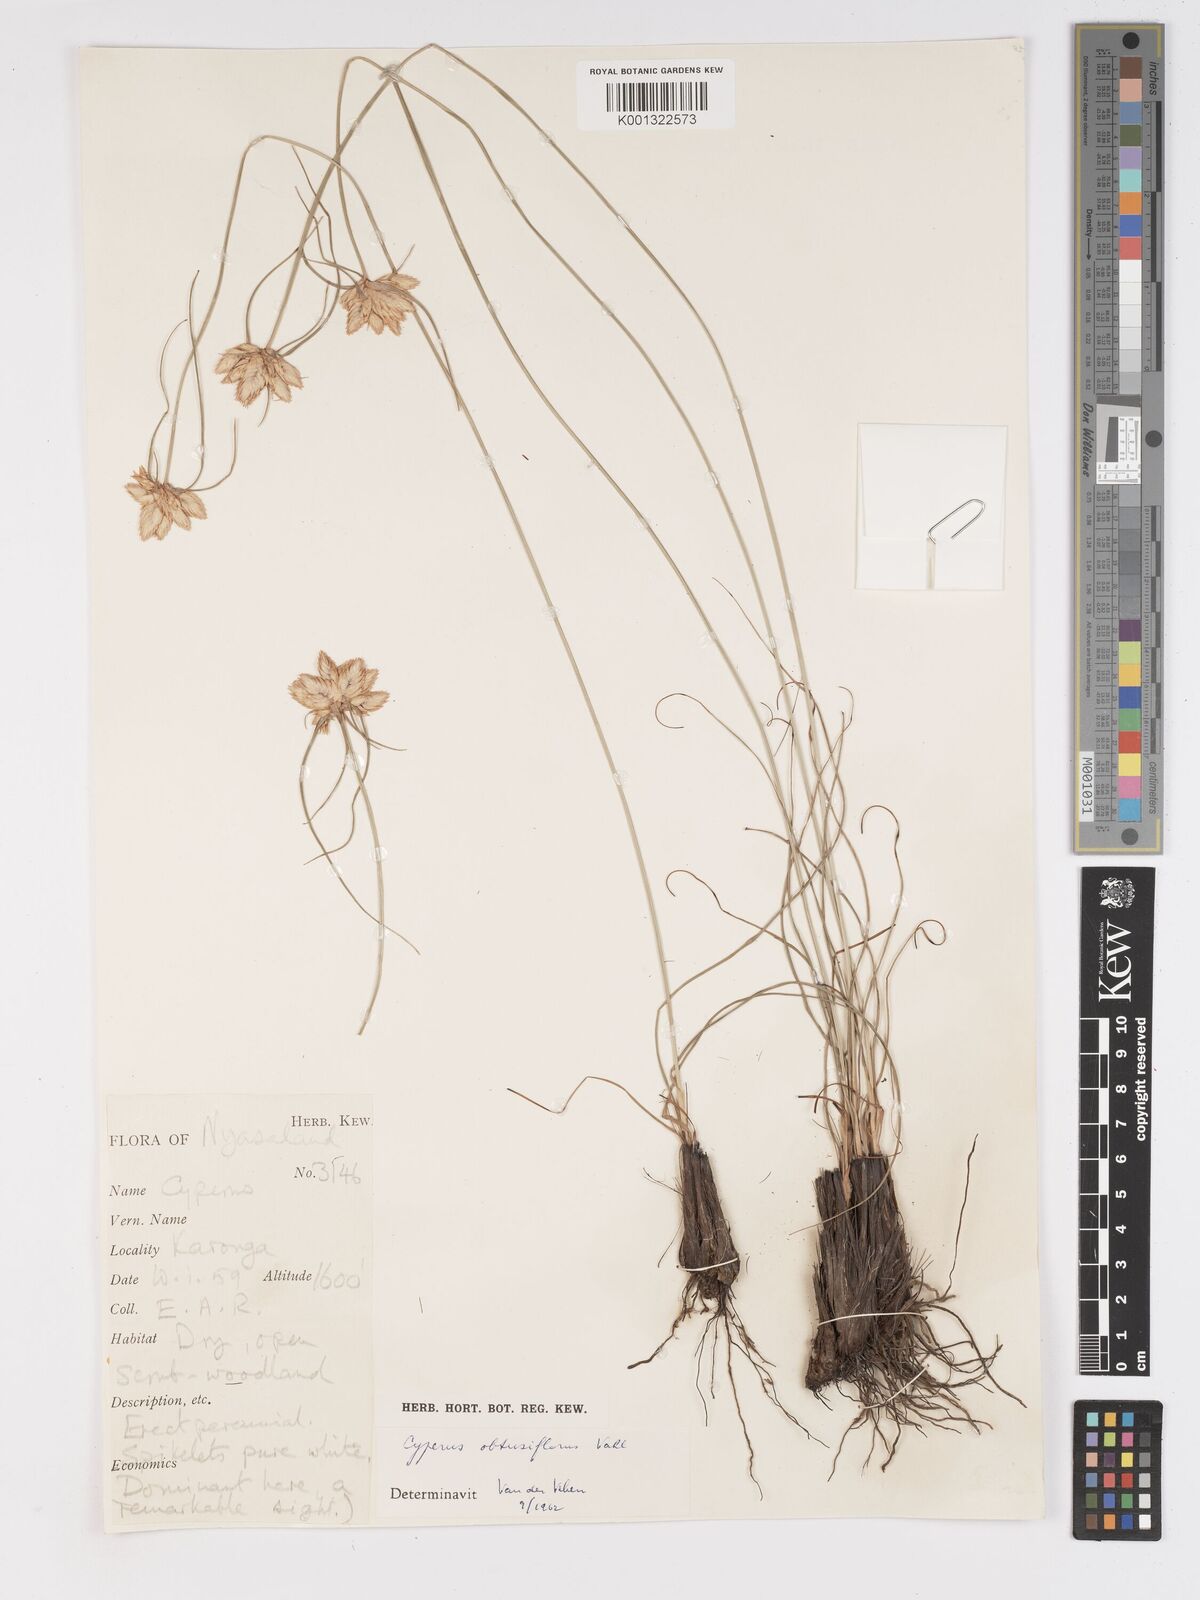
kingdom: Plantae
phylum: Tracheophyta
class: Liliopsida
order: Poales
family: Cyperaceae
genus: Cyperus
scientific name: Cyperus niveus
